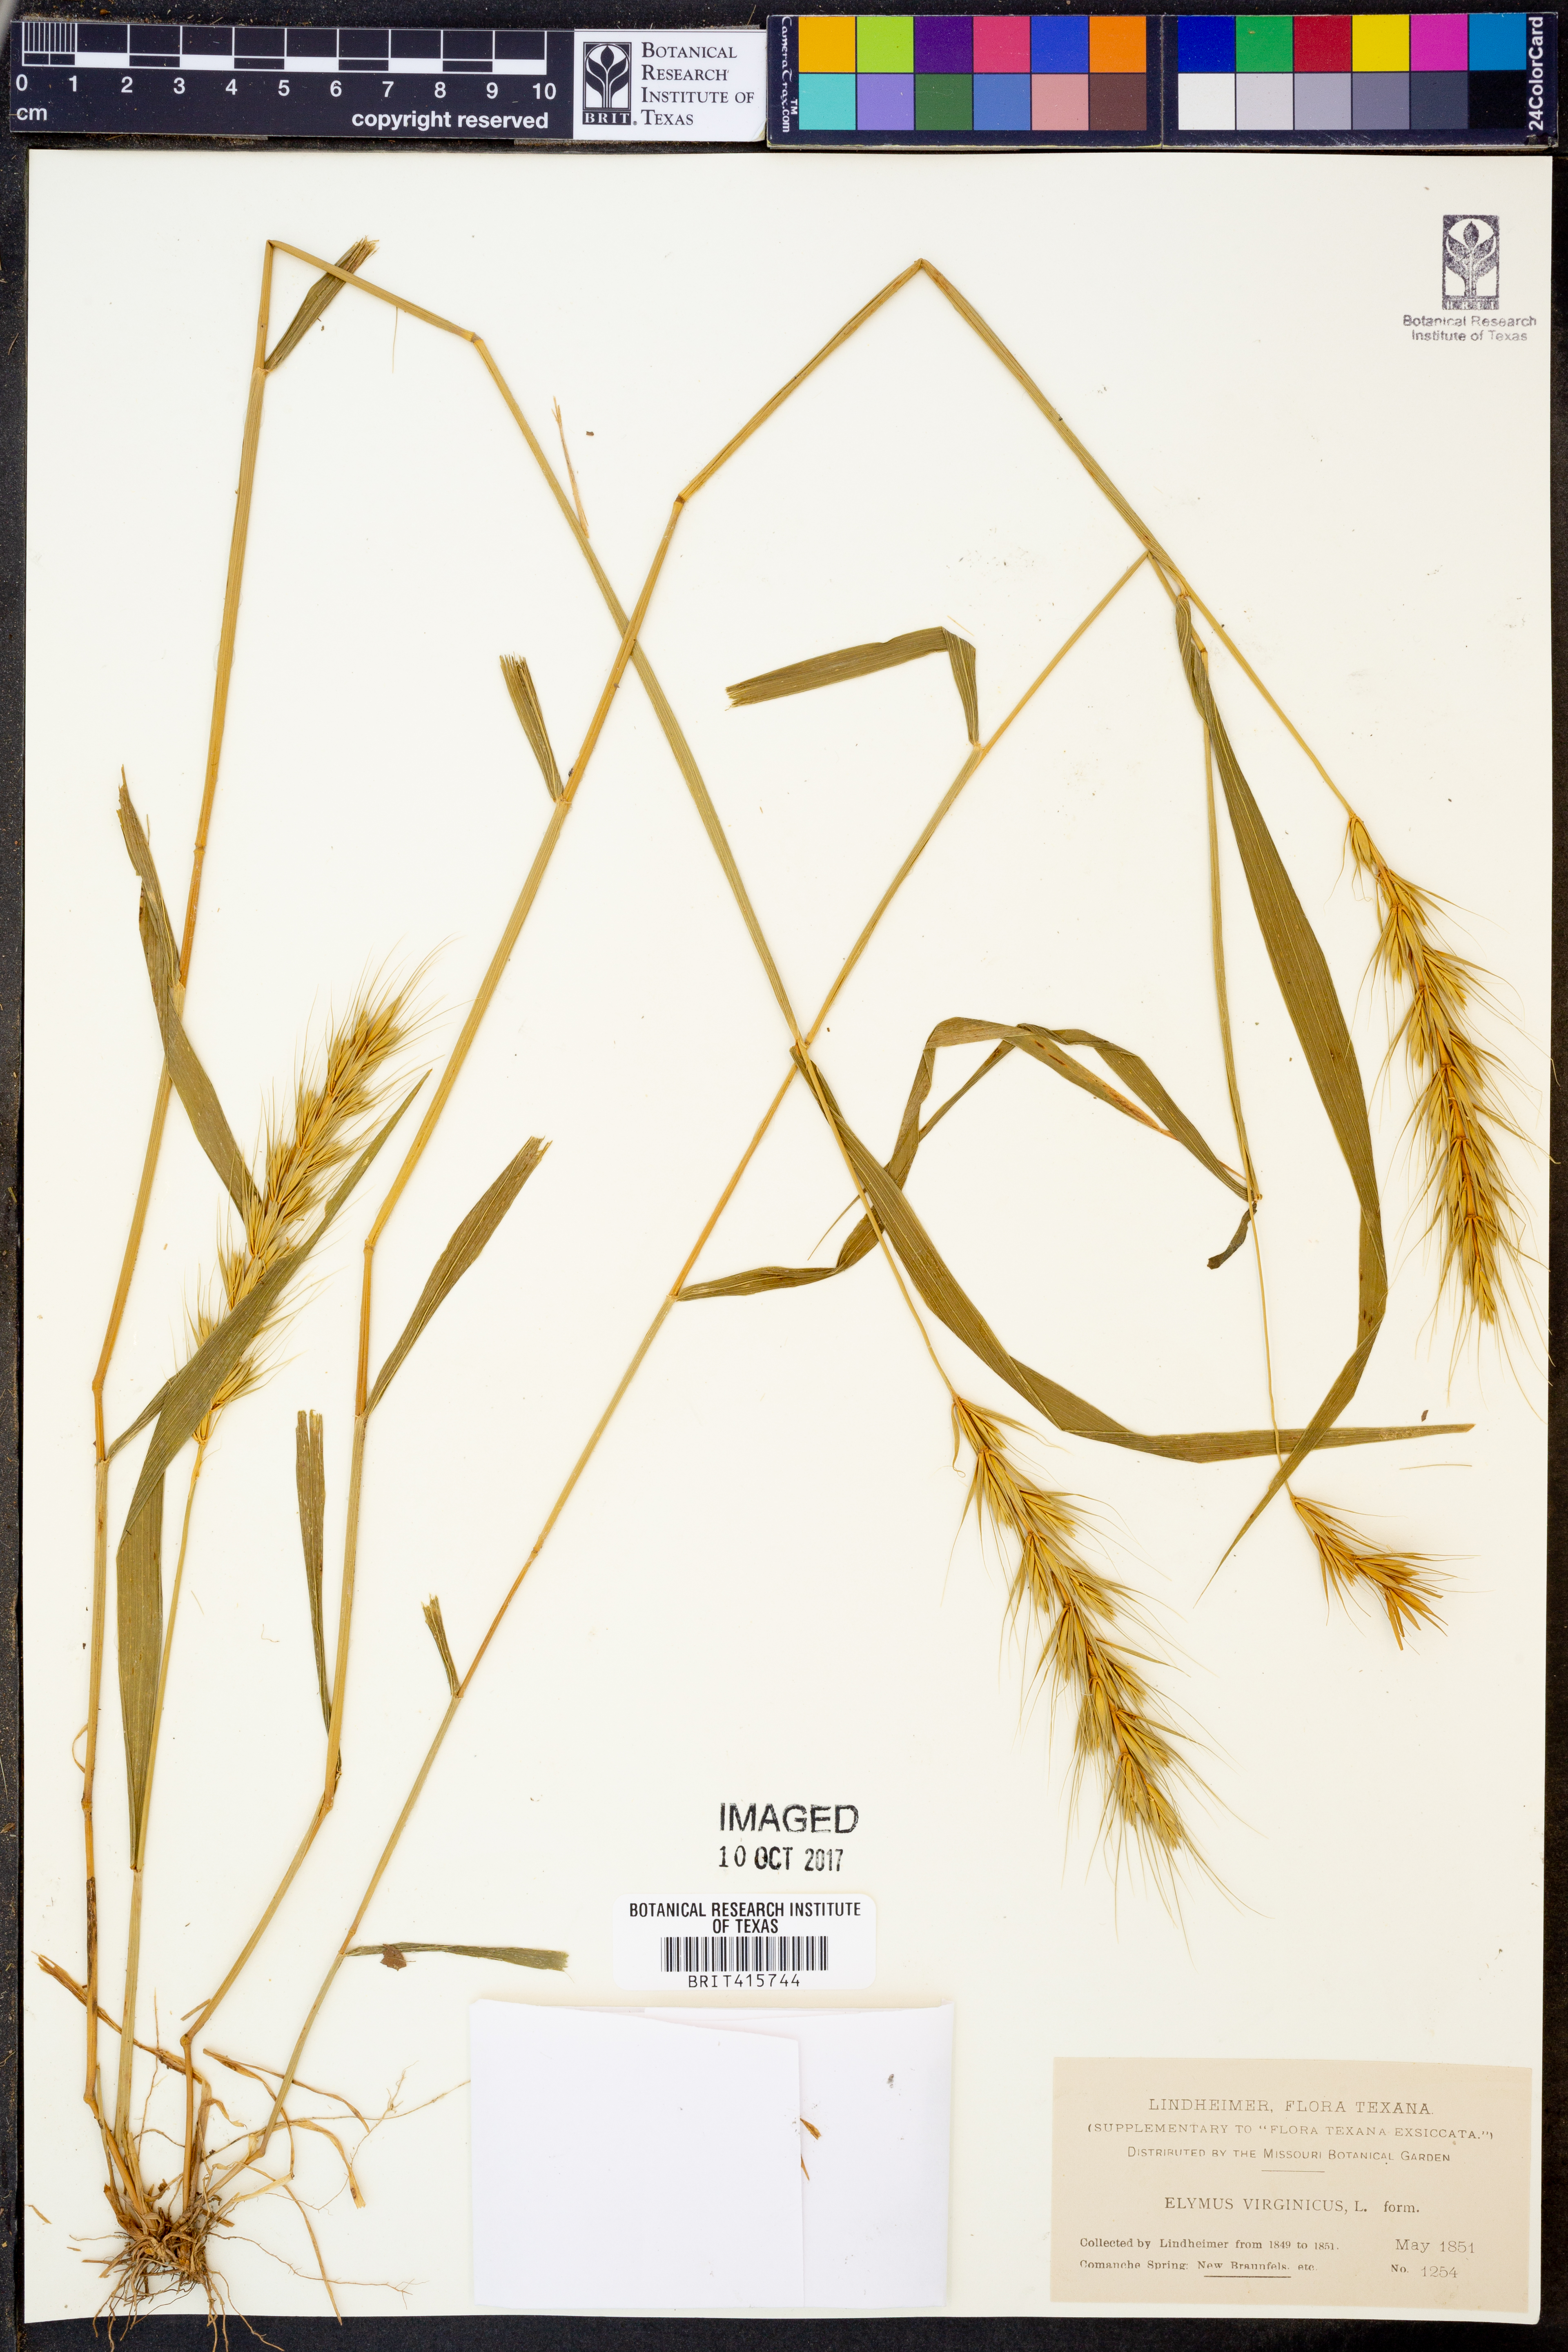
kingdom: Plantae
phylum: Tracheophyta
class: Liliopsida
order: Poales
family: Poaceae
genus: Elymus
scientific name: Elymus virginicus
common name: Common eastern wildrye
